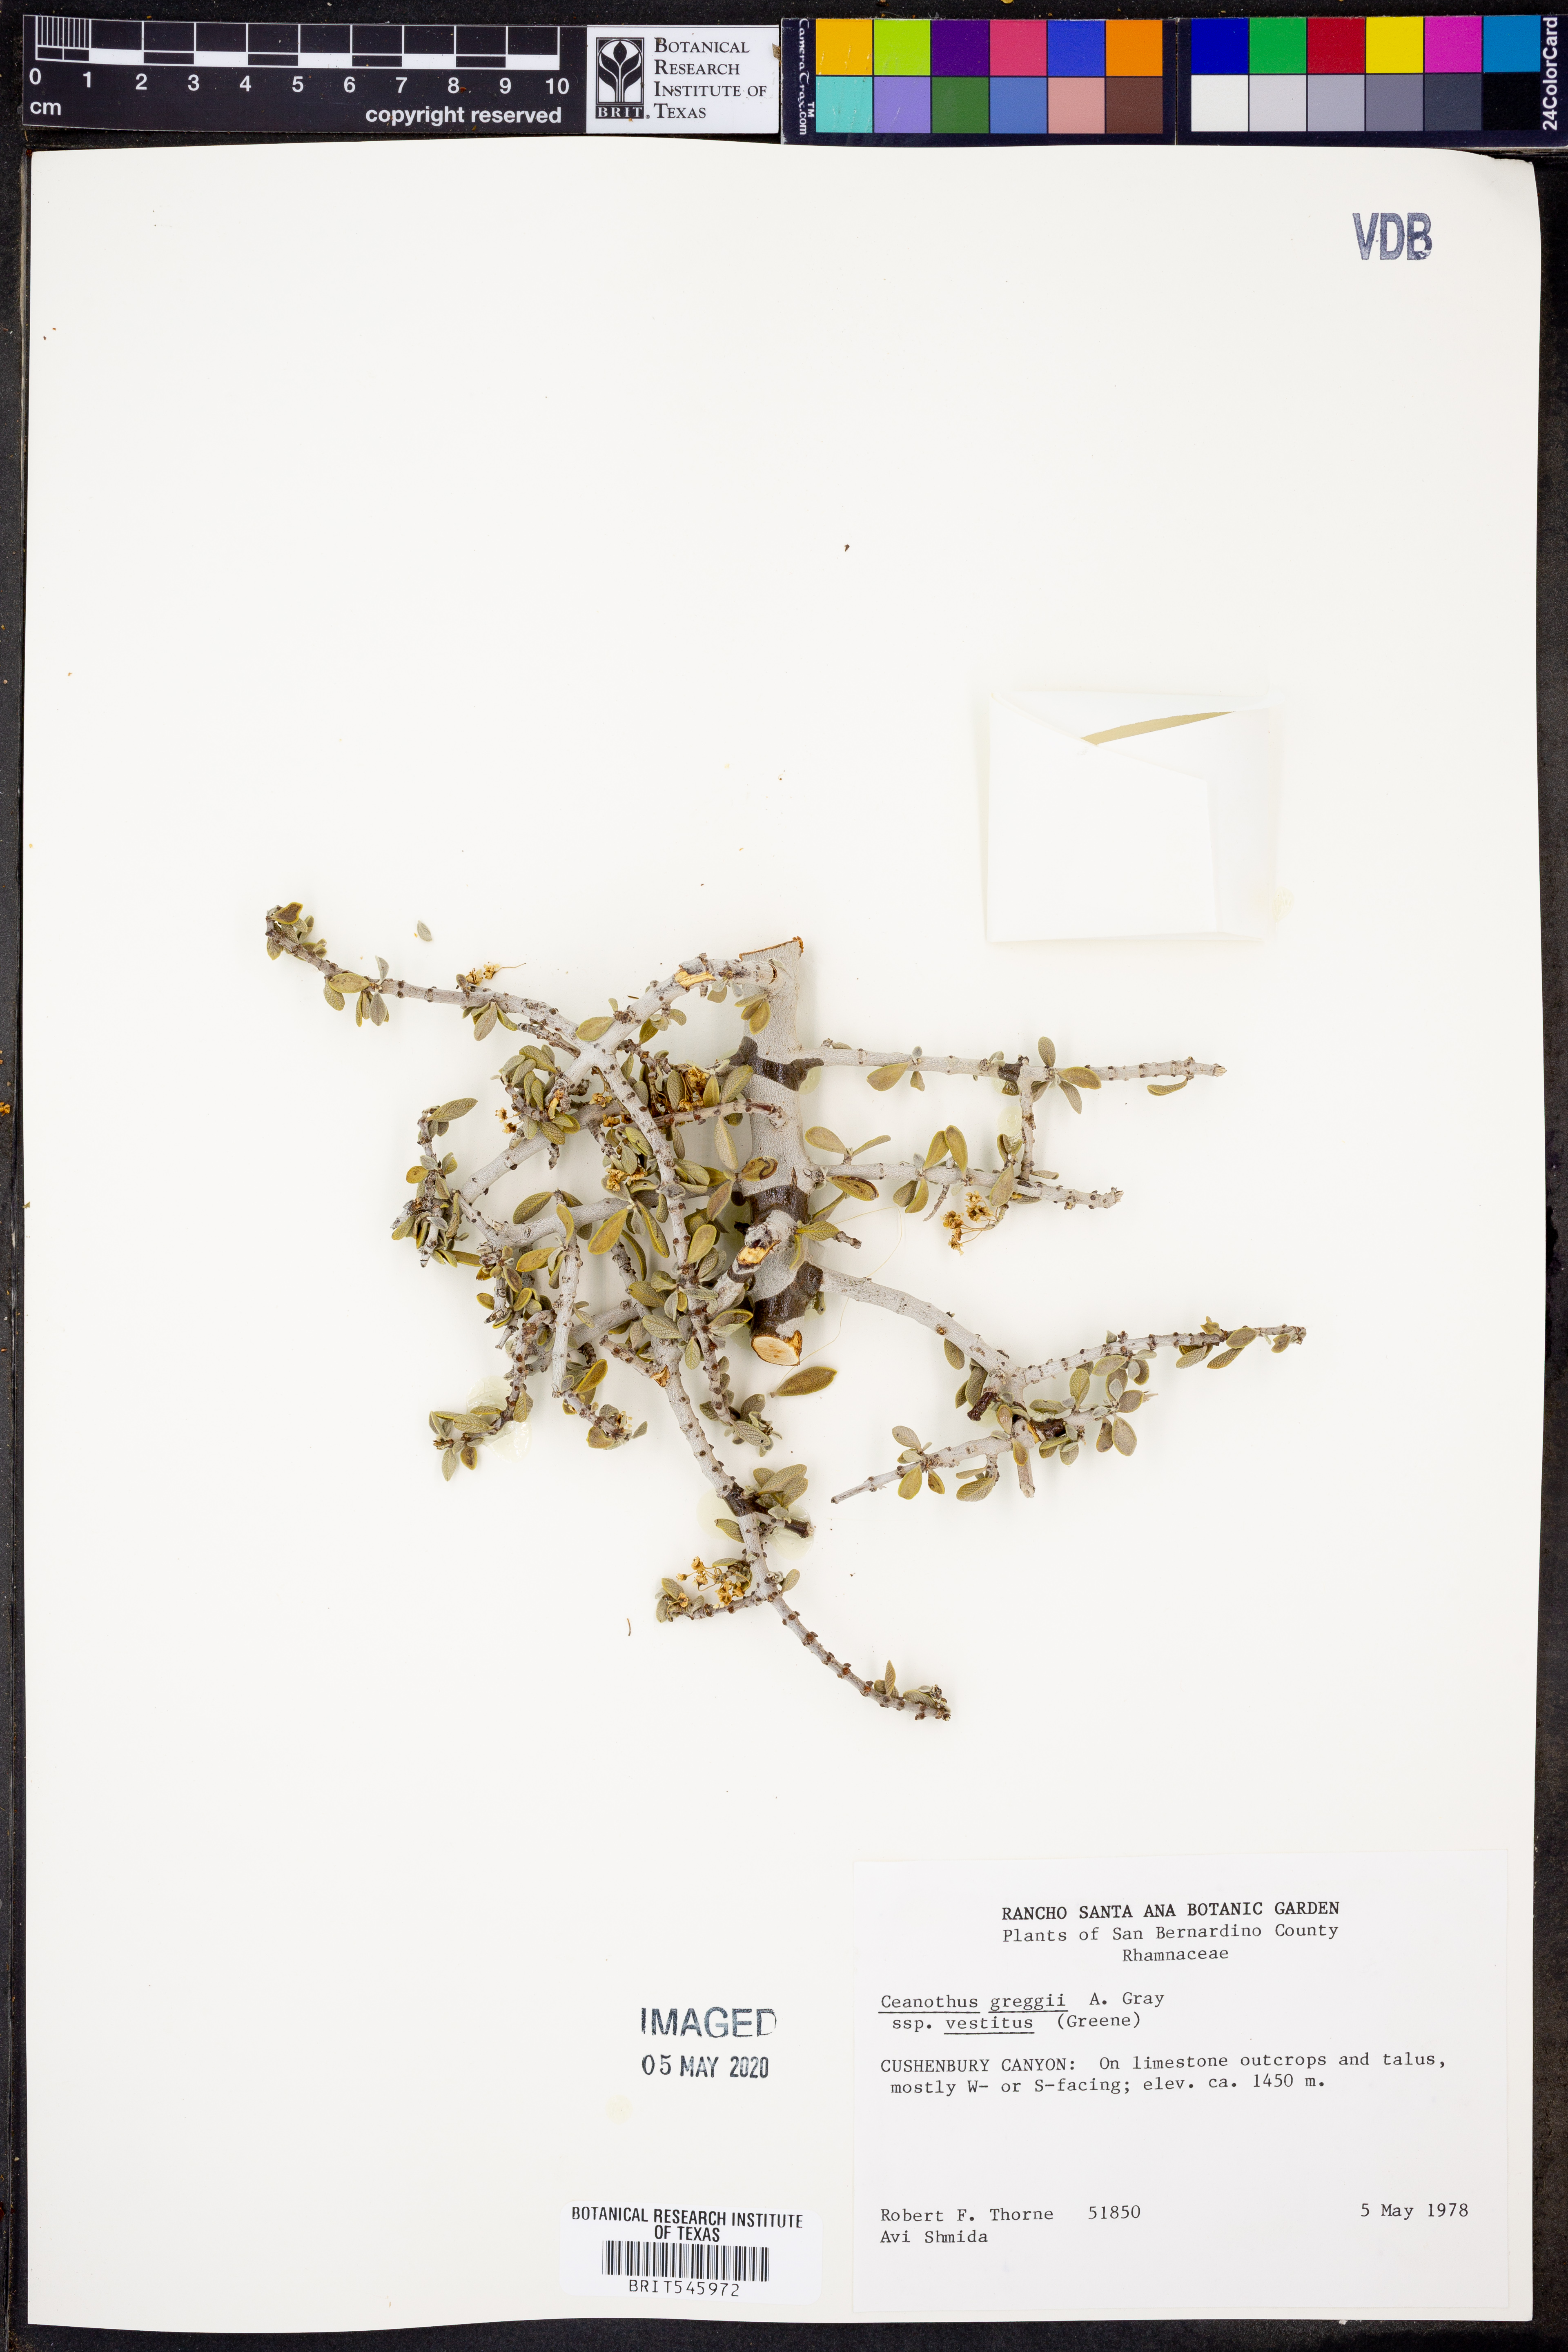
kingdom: Plantae
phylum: Tracheophyta
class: Magnoliopsida
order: Rosales
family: Rhamnaceae
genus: Ceanothus
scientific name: Ceanothus pauciflorus
